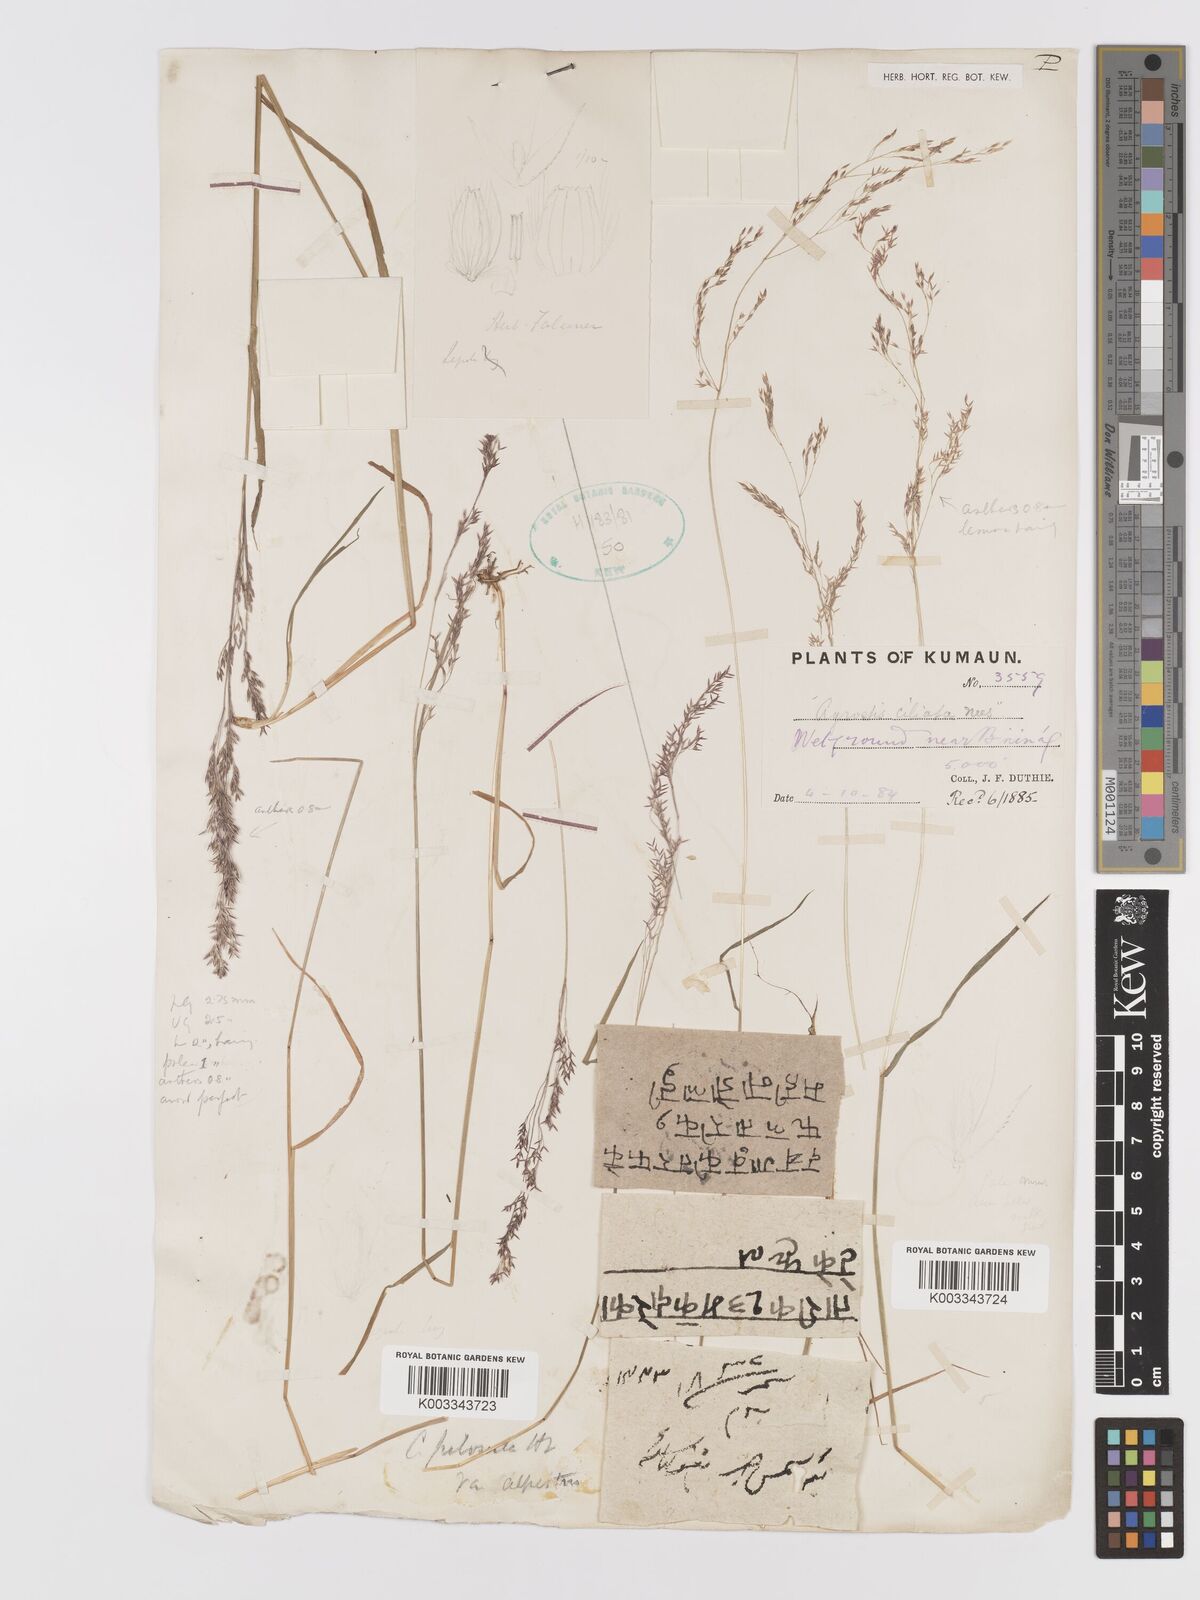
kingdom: Plantae
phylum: Tracheophyta
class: Liliopsida
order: Poales
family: Poaceae
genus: Agrostis
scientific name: Agrostis pilosula
